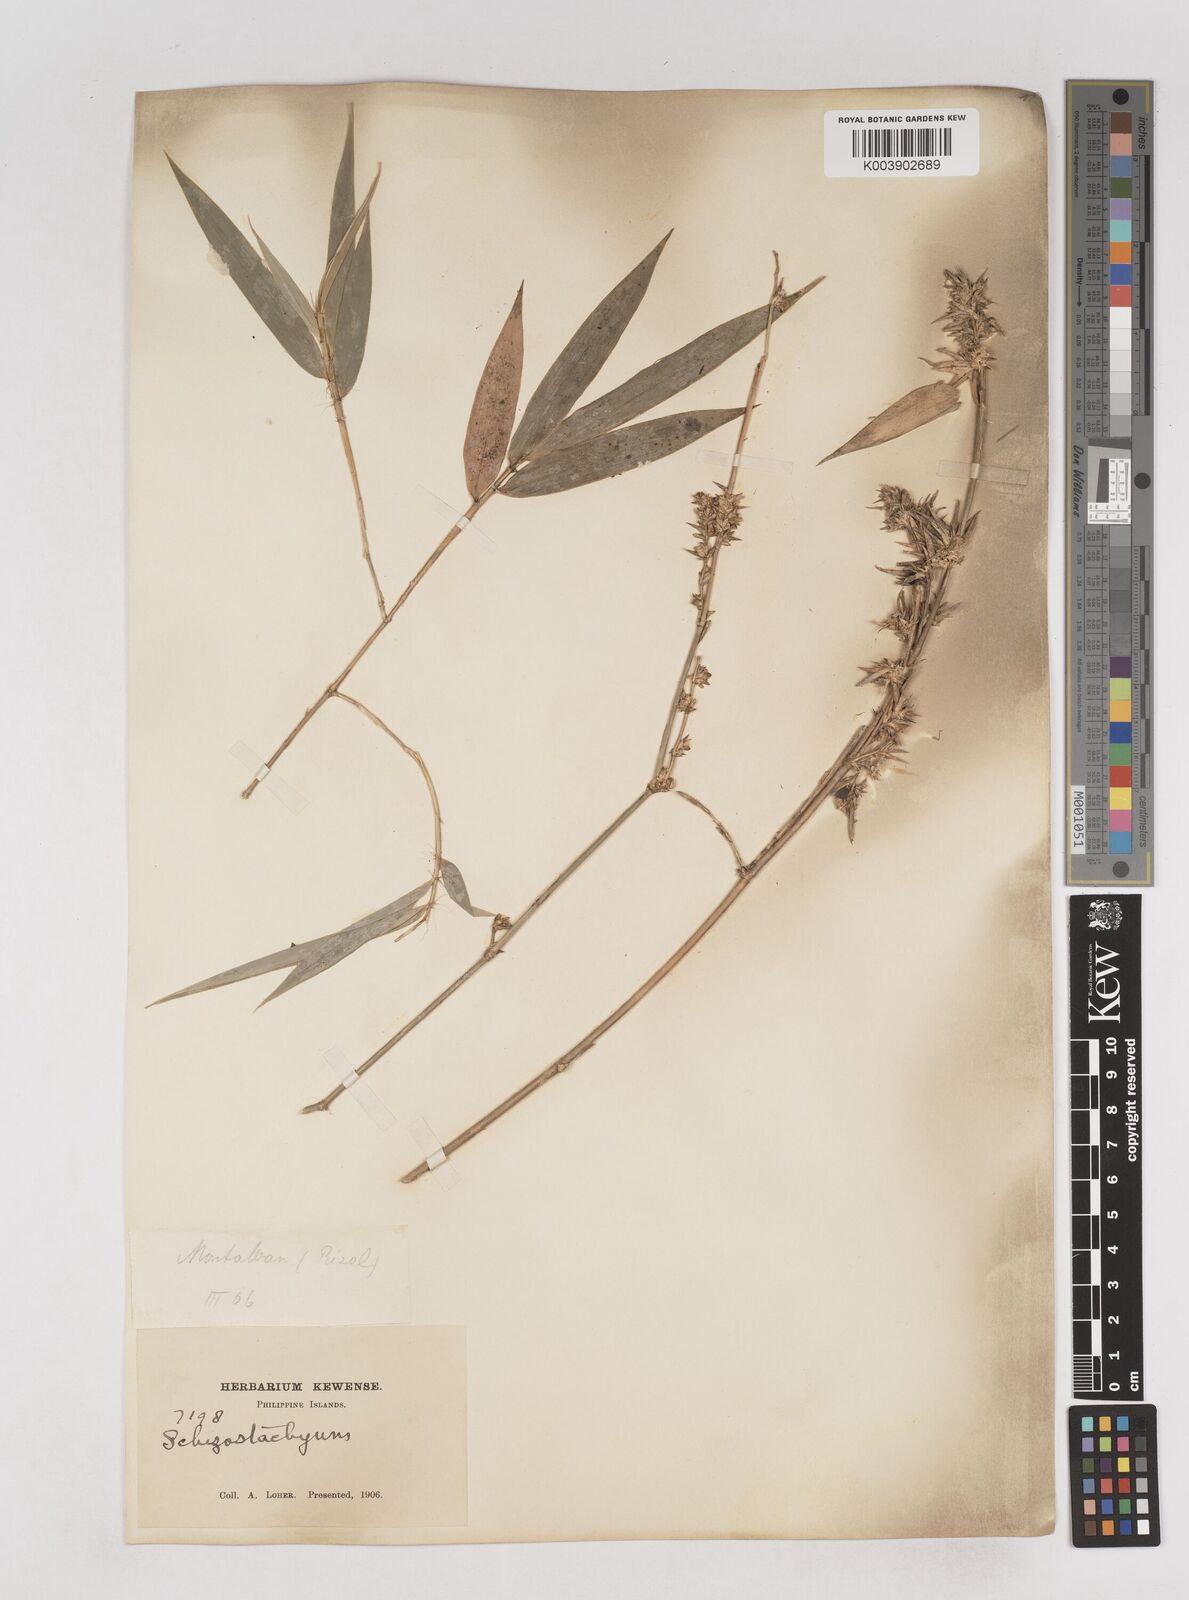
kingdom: Plantae
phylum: Tracheophyta
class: Liliopsida
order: Poales
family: Poaceae
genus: Schizostachyum
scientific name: Schizostachyum
